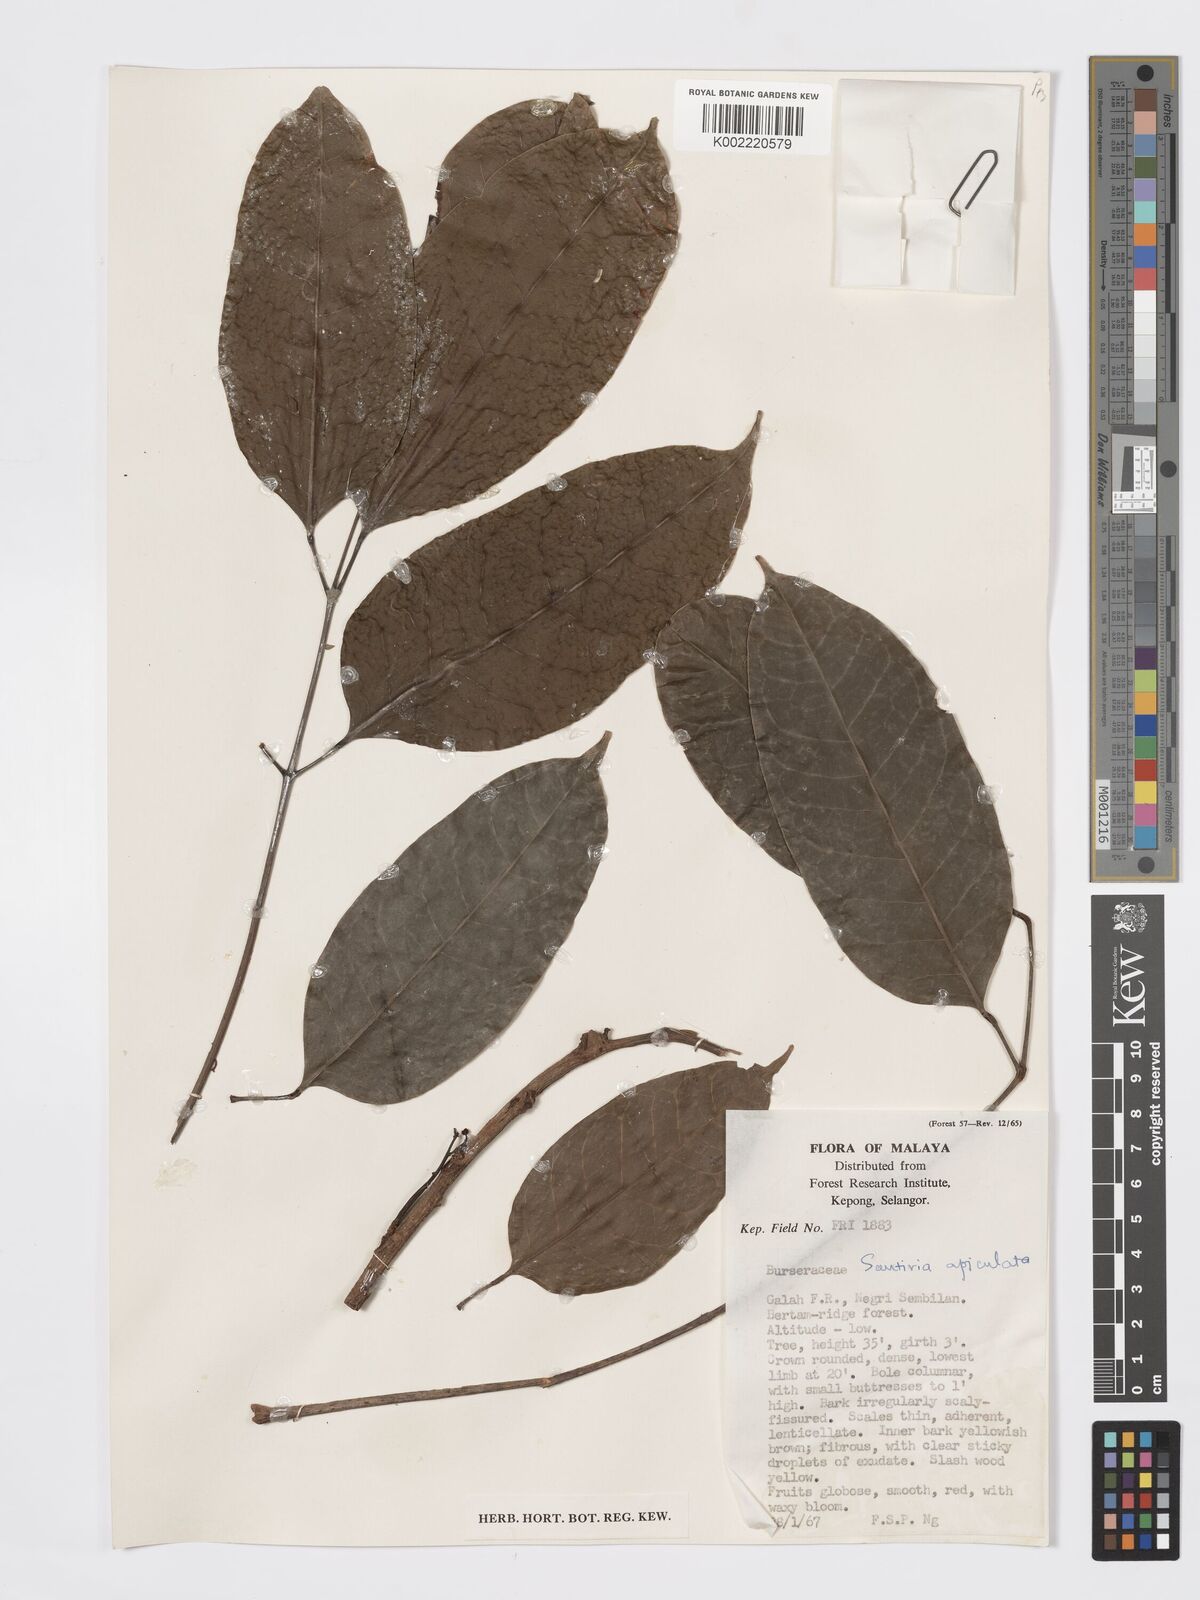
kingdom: Plantae
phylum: Tracheophyta
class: Magnoliopsida
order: Sapindales
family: Burseraceae
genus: Santiria
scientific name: Santiria apiculata
